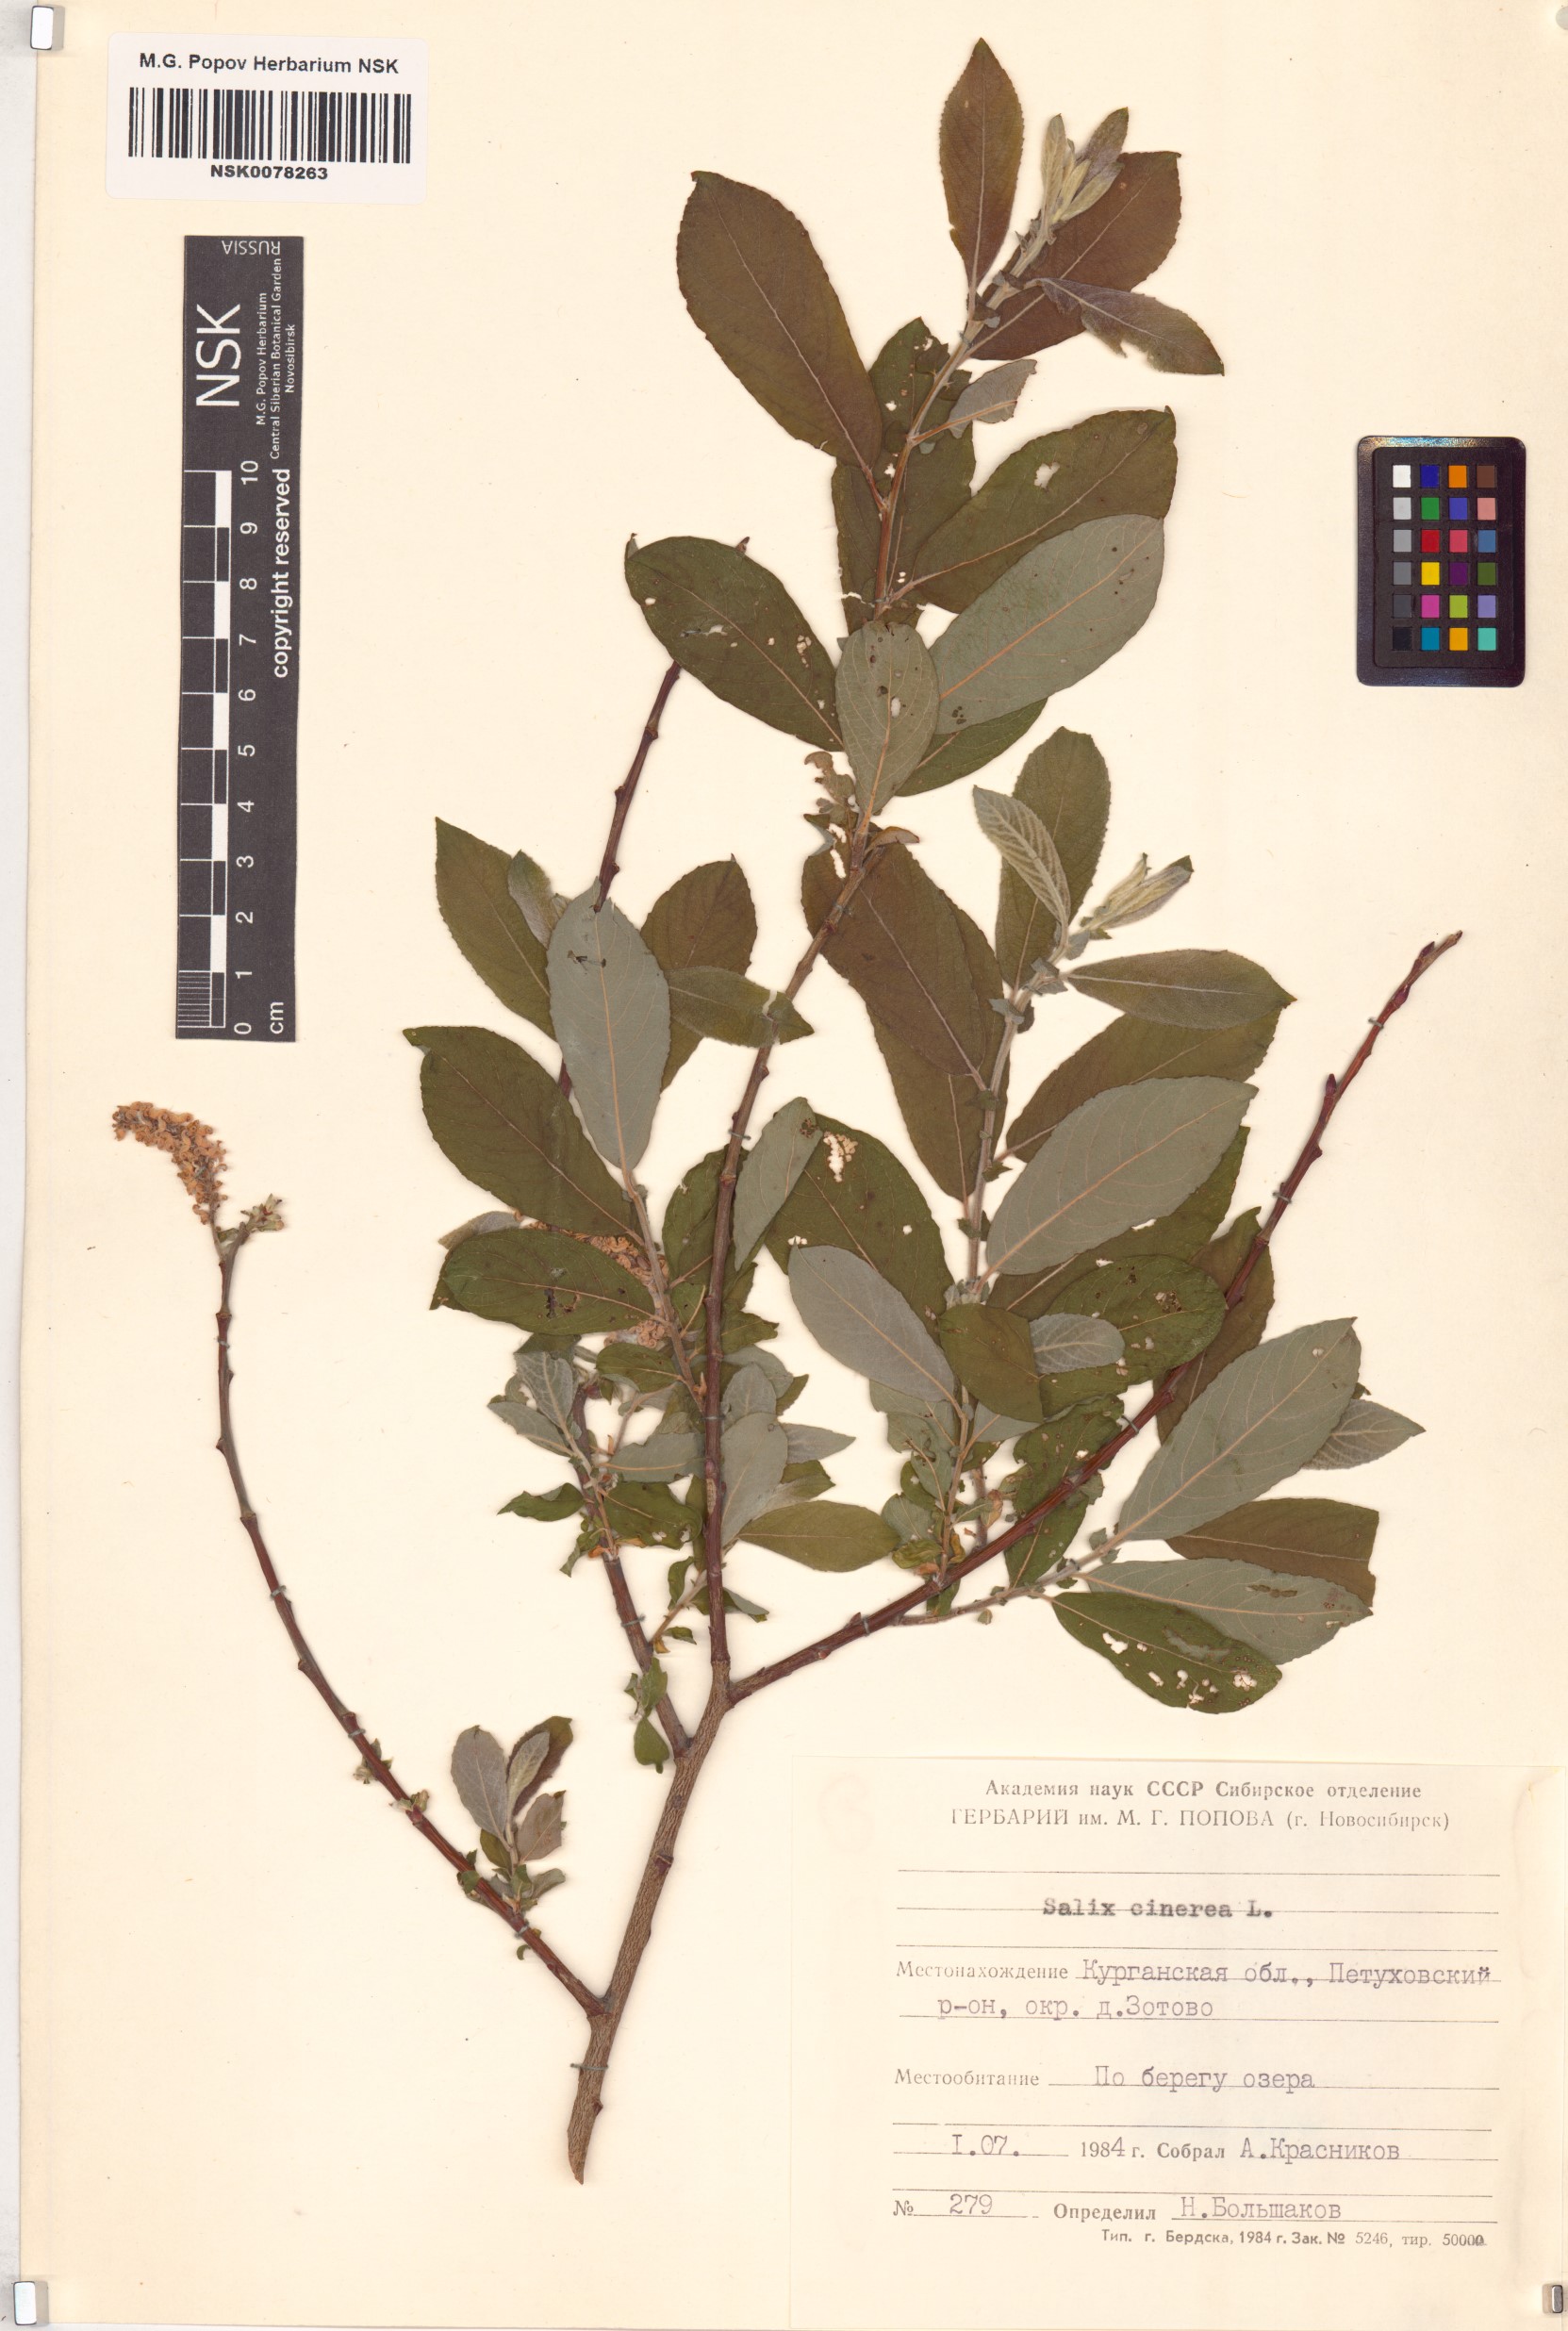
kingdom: Plantae
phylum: Tracheophyta
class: Magnoliopsida
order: Malpighiales
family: Salicaceae
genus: Salix
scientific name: Salix cinerea
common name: Common sallow
